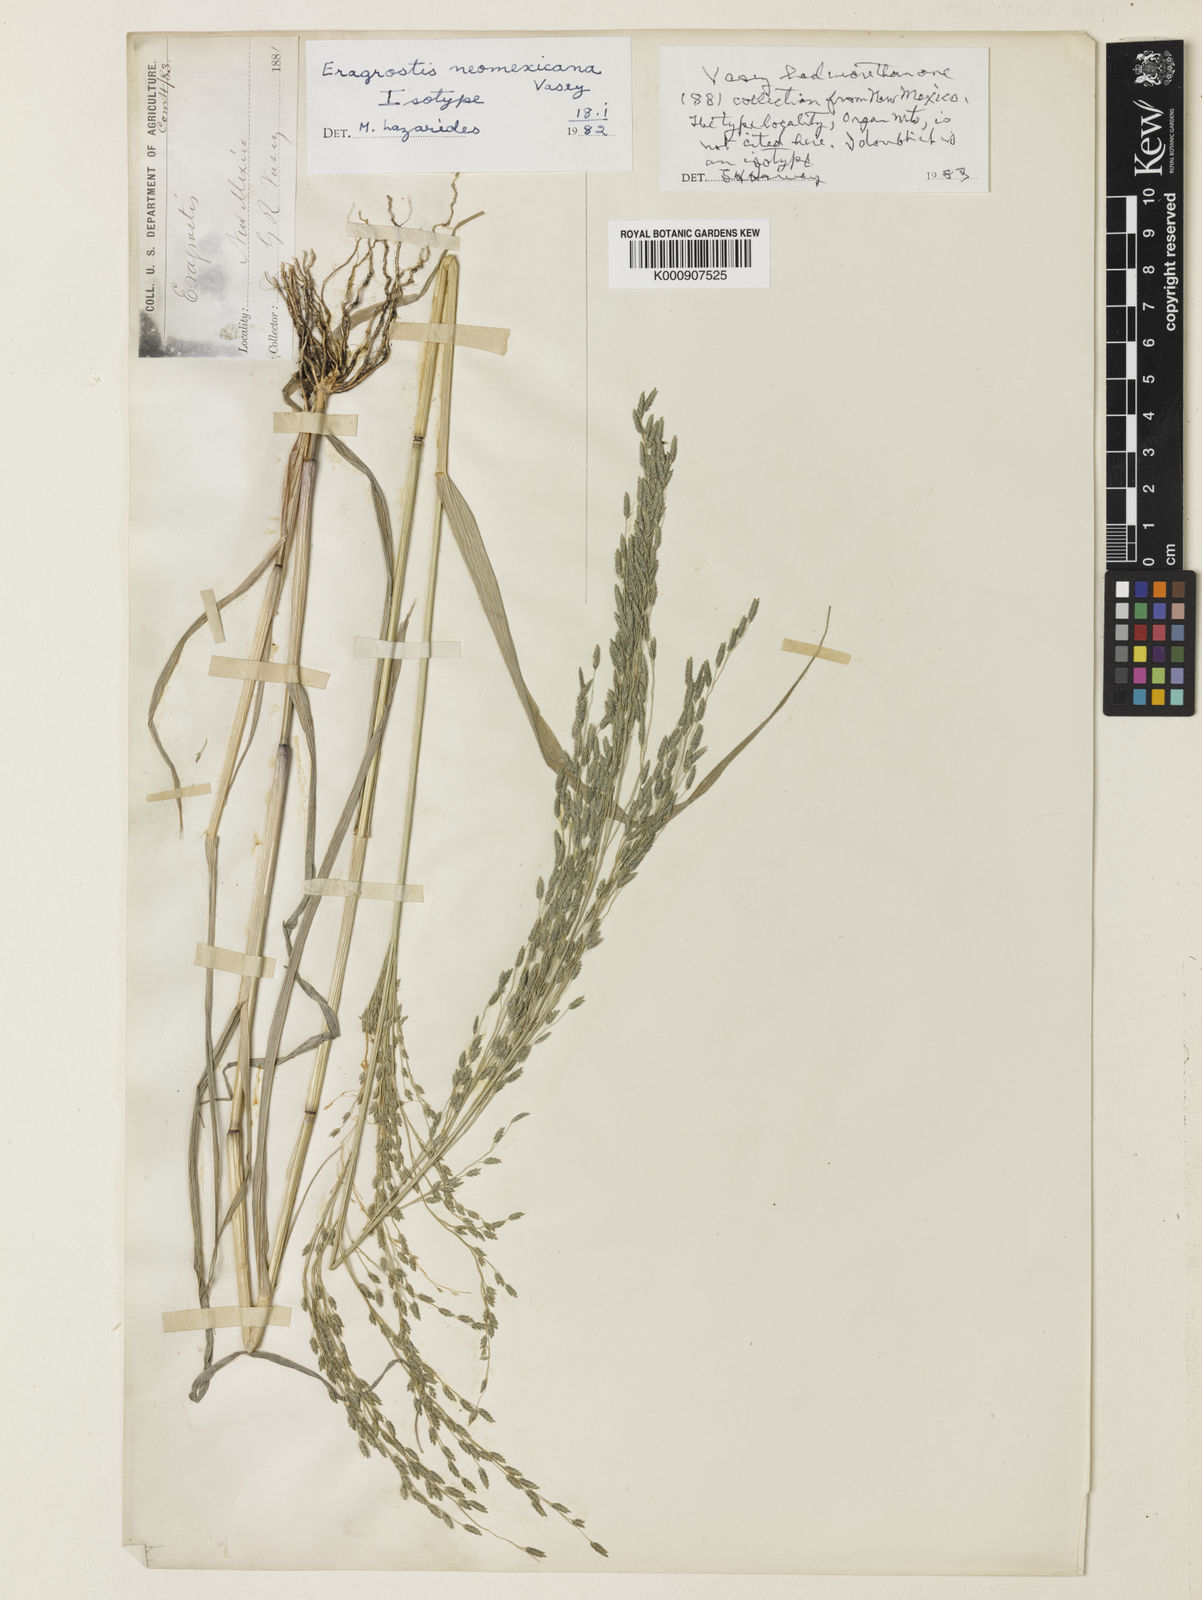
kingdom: Plantae
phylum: Tracheophyta
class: Liliopsida
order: Poales
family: Poaceae
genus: Eragrostis
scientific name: Eragrostis
